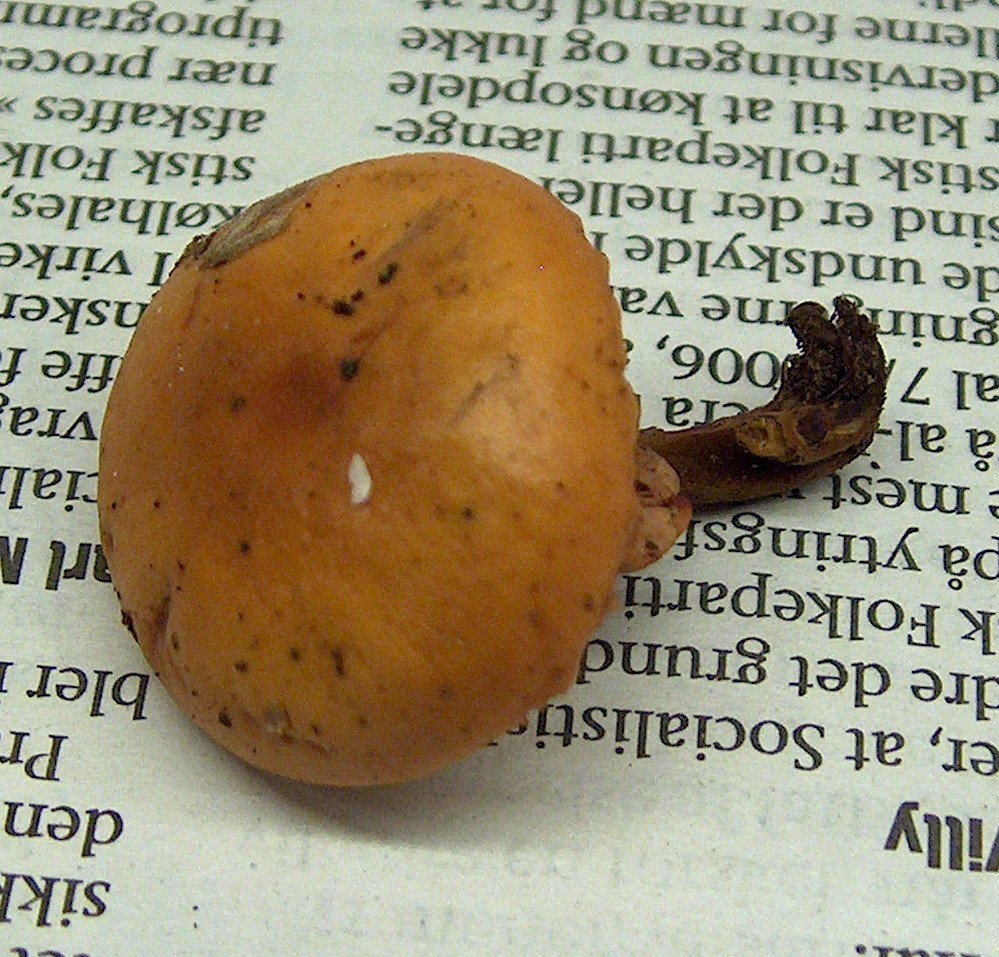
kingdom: Fungi
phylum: Basidiomycota
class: Agaricomycetes
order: Agaricales
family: Physalacriaceae
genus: Flammulina
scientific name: Flammulina velutipes
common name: gul fløjlsfod
